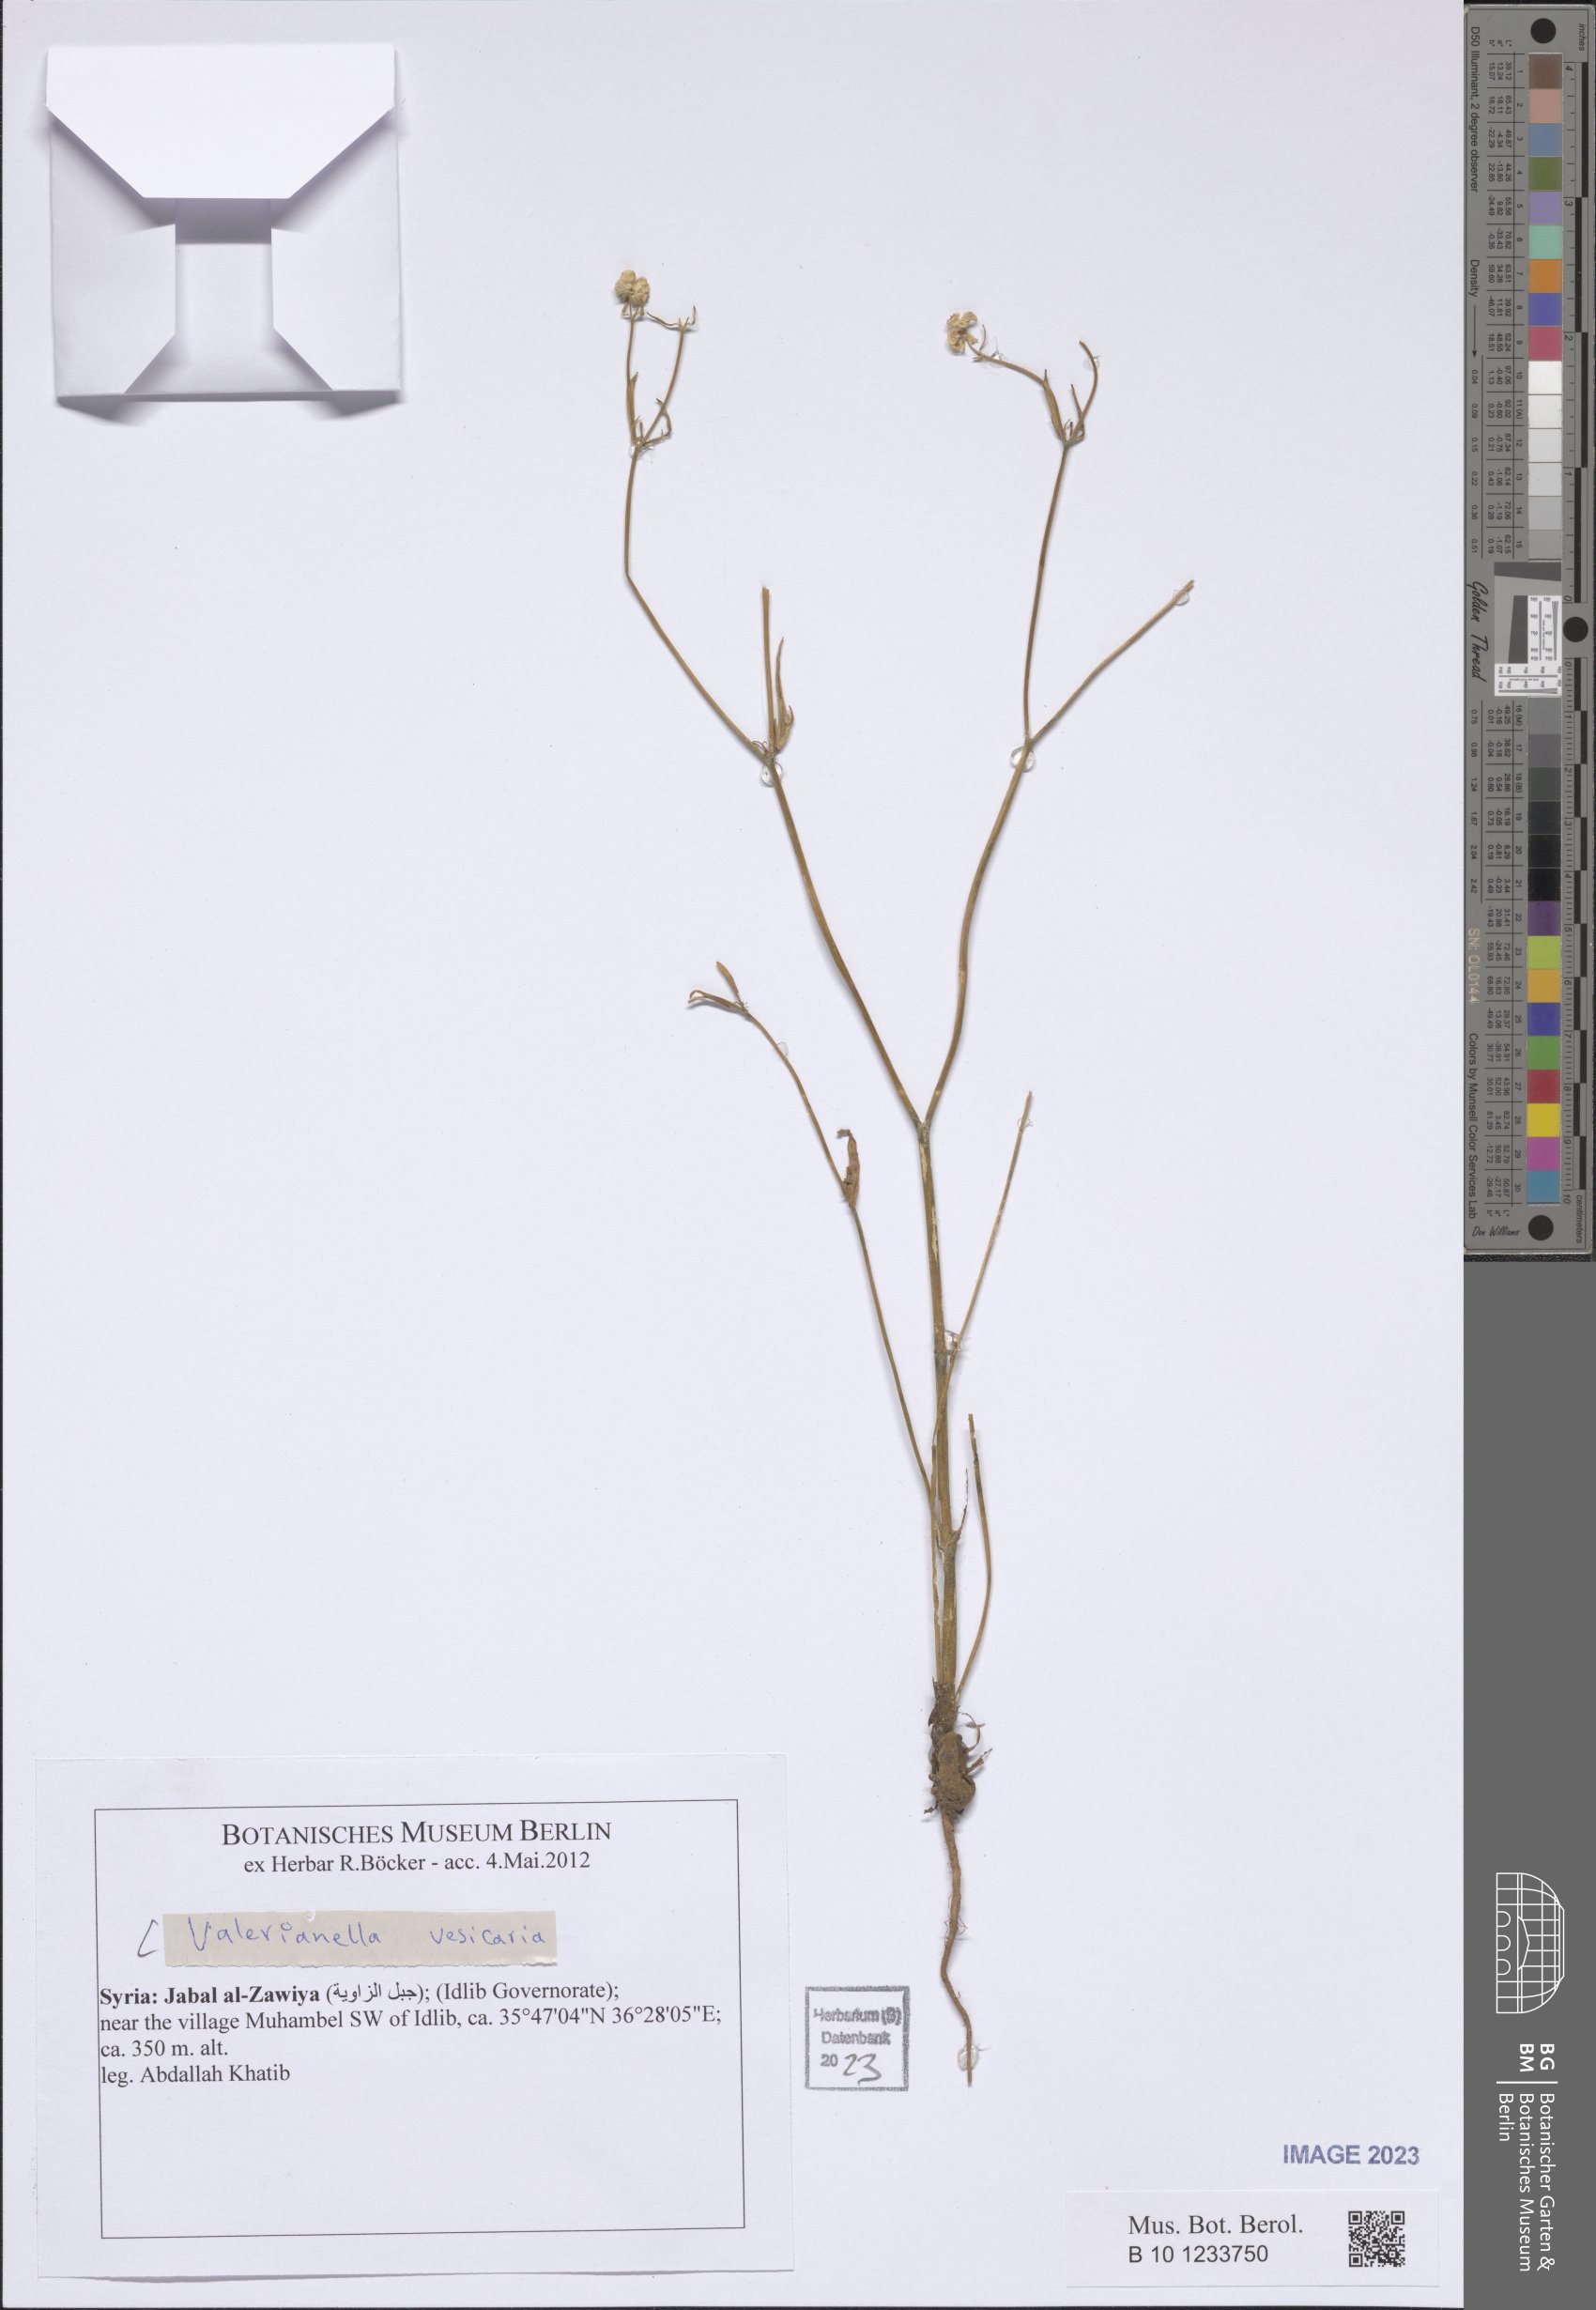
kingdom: Plantae
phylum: Tracheophyta
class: Magnoliopsida
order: Dipsacales
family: Caprifoliaceae
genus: Valerianella
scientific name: Valerianella vesicaria
